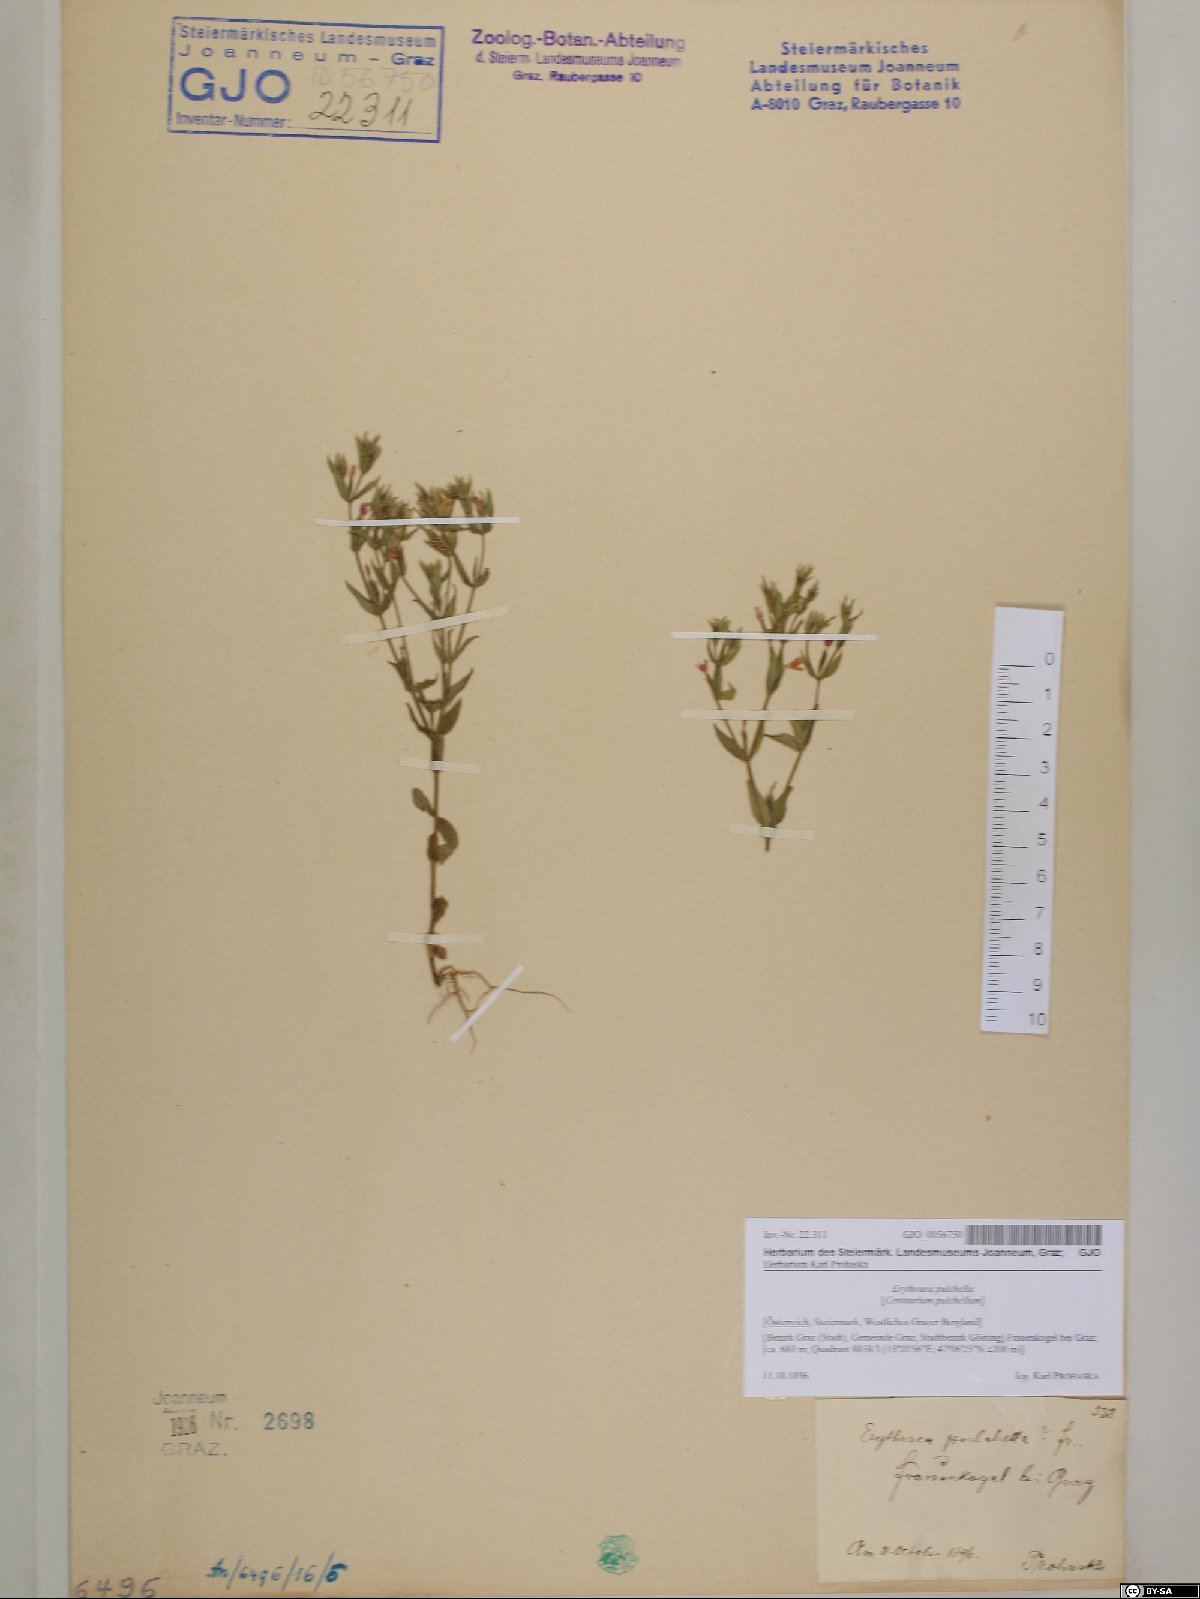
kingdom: Plantae
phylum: Tracheophyta
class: Magnoliopsida
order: Gentianales
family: Gentianaceae
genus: Centaurium
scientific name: Centaurium pulchellum
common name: Lesser centaury
